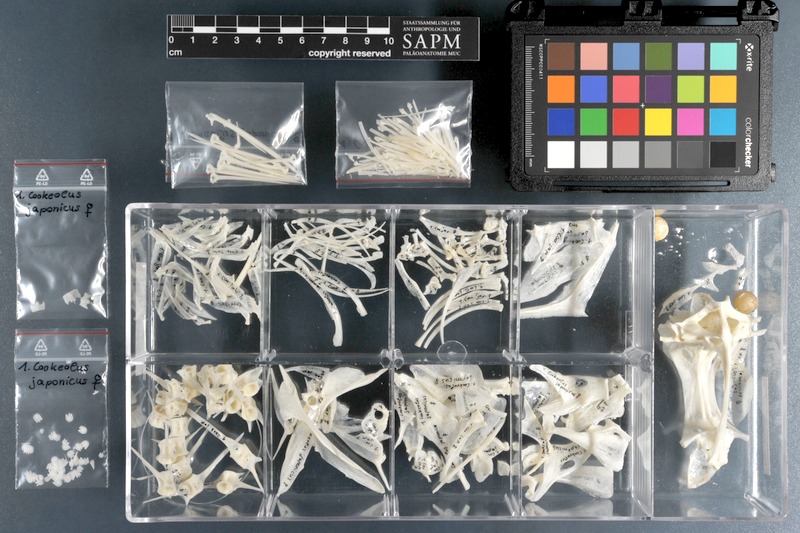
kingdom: Animalia
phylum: Chordata
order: Perciformes
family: Priacanthidae
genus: Cookeolus
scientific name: Cookeolus japonicus
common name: Bulleye
